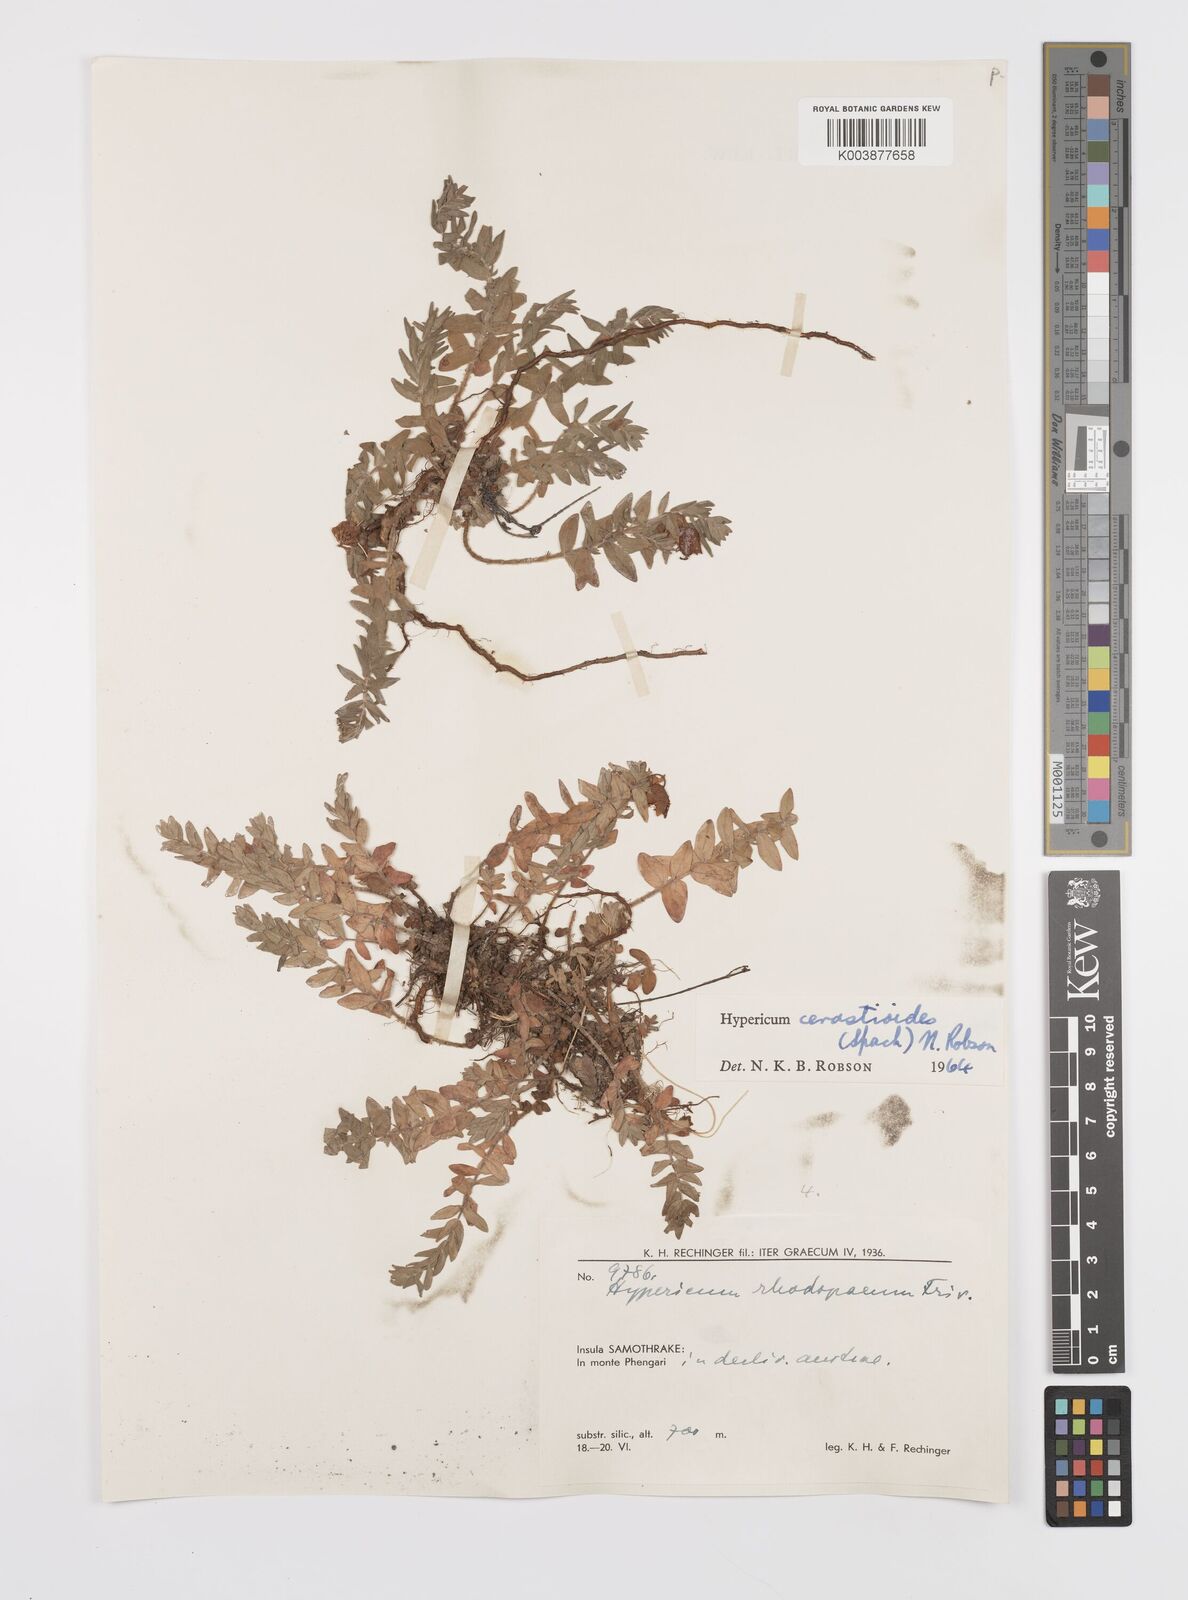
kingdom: Plantae
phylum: Tracheophyta
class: Magnoliopsida
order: Malpighiales
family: Hypericaceae
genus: Hypericum
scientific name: Hypericum cerastoides
